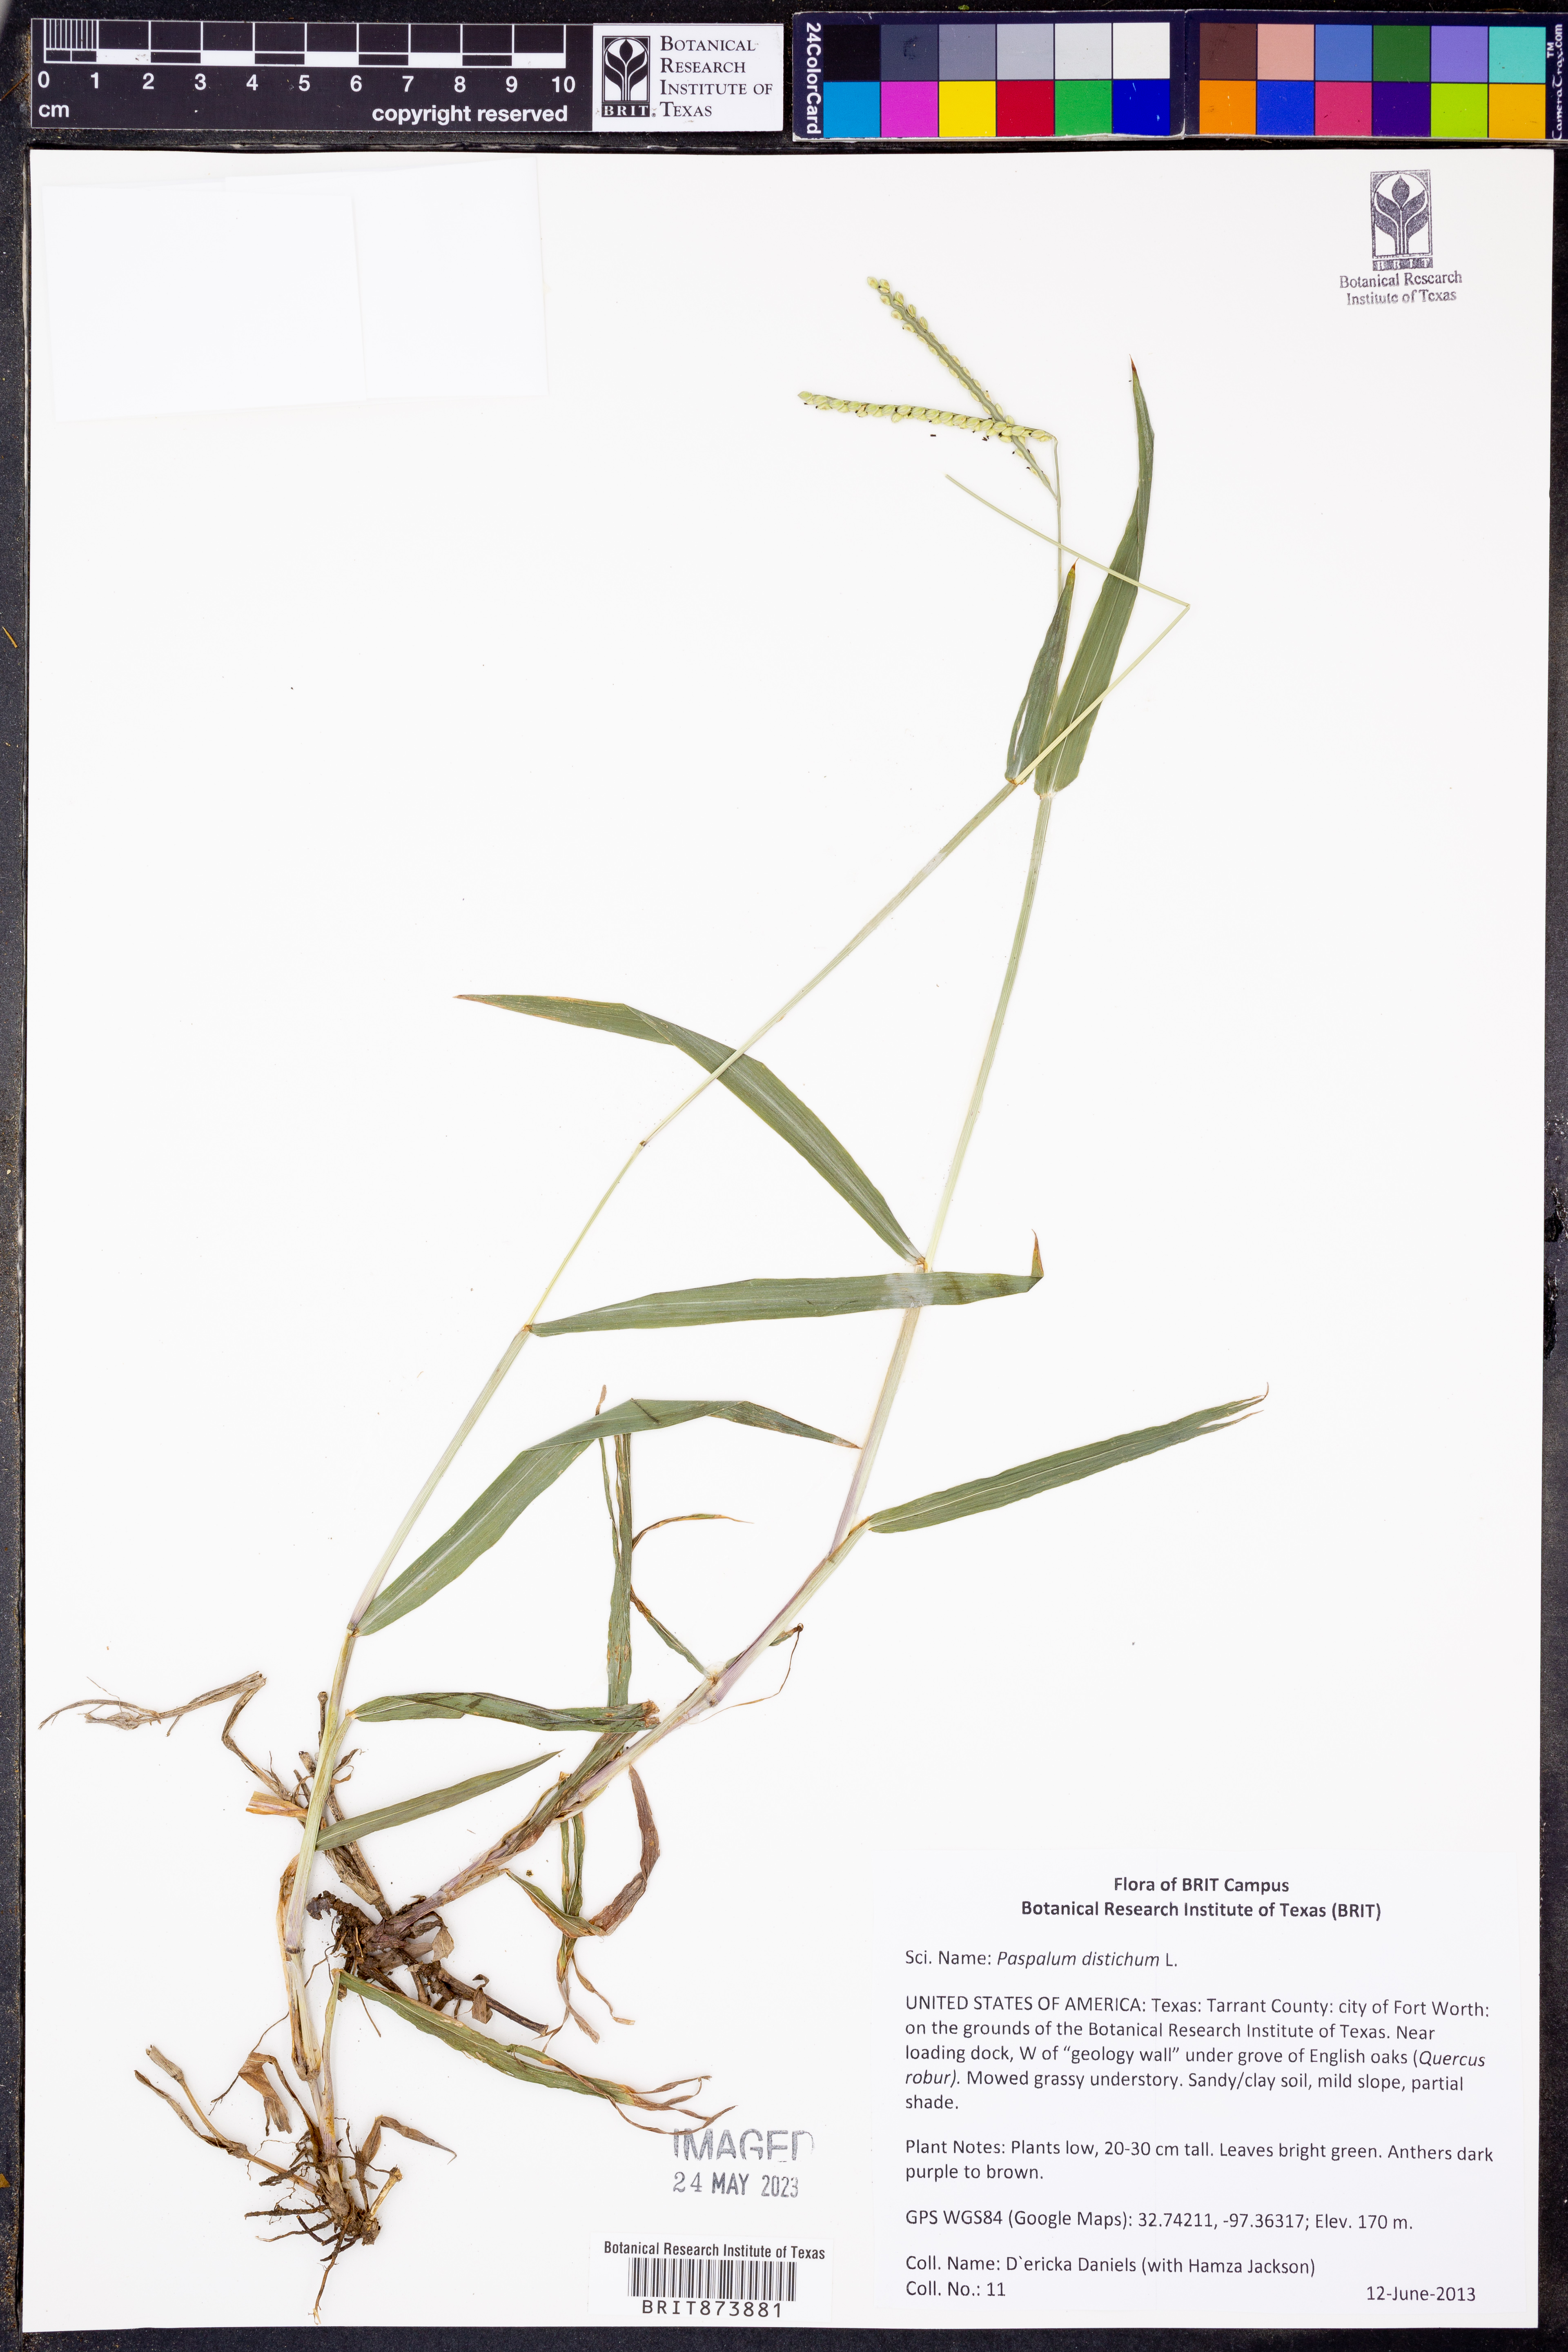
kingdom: Plantae
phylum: Tracheophyta
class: Liliopsida
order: Poales
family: Poaceae
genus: Paspalum
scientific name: Paspalum distichum
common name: Knotgrass
